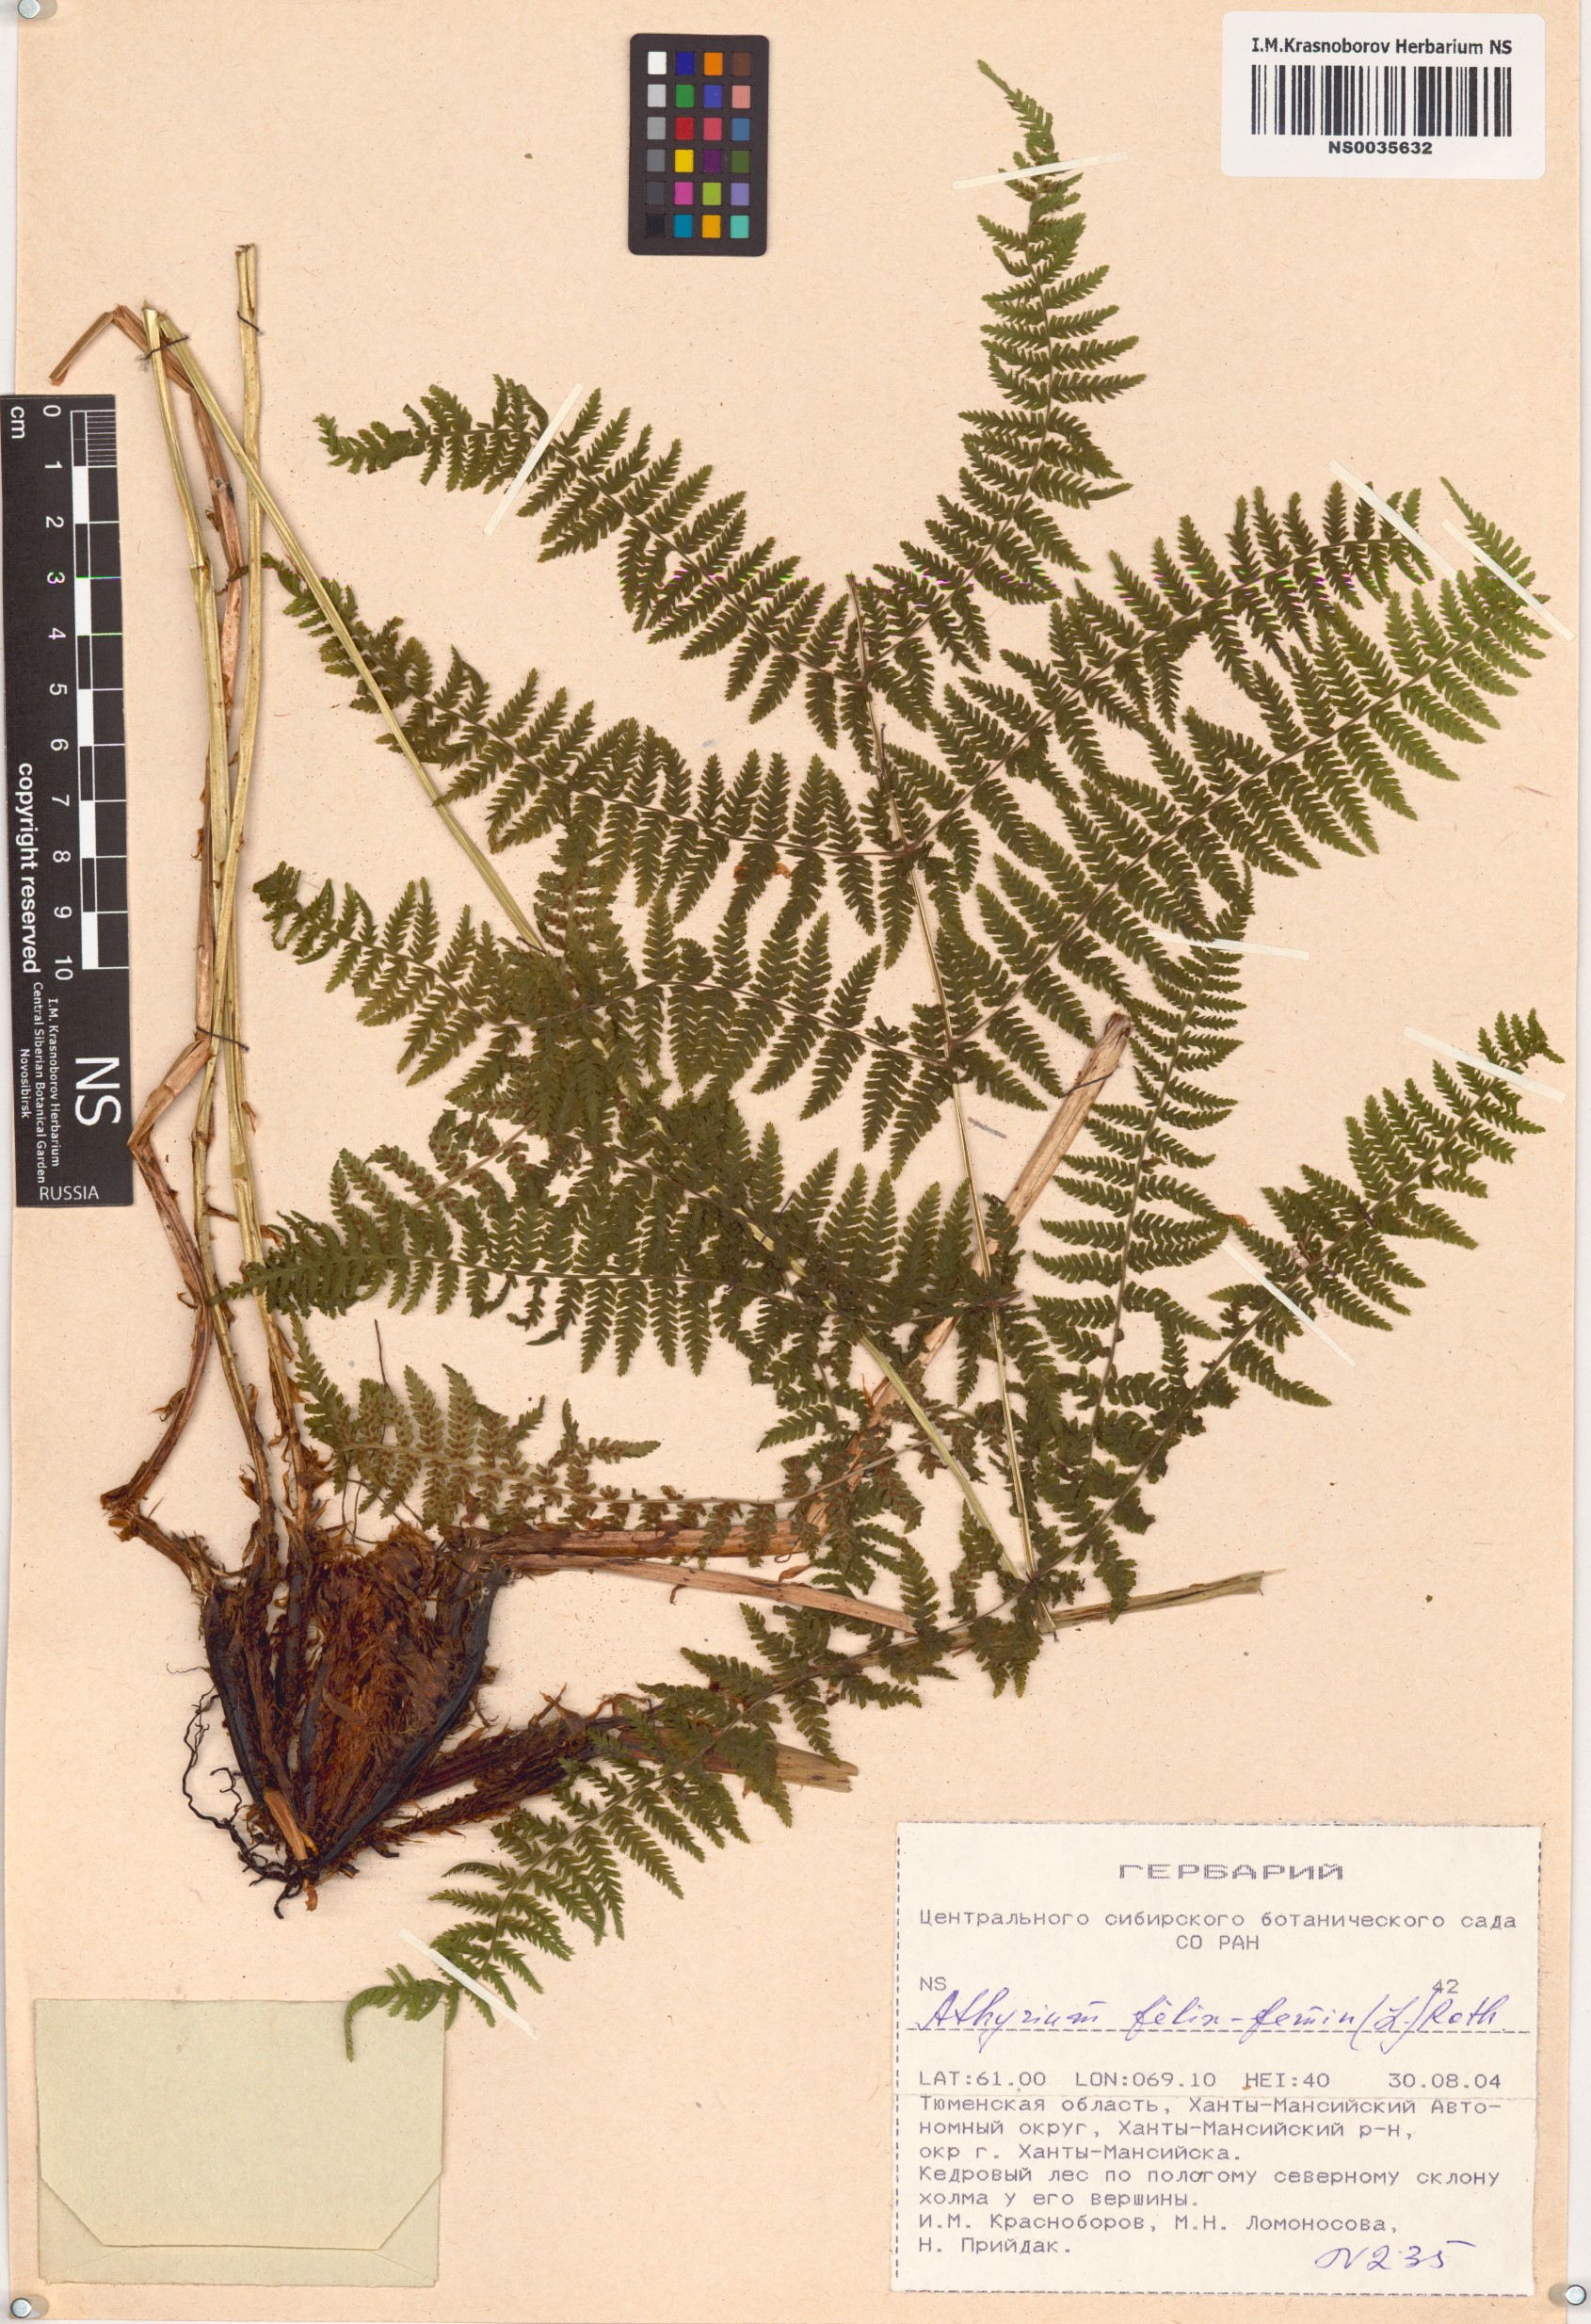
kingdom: Plantae
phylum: Tracheophyta
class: Polypodiopsida
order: Polypodiales
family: Athyriaceae
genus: Athyrium
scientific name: Athyrium filix-femina
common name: Lady fern
